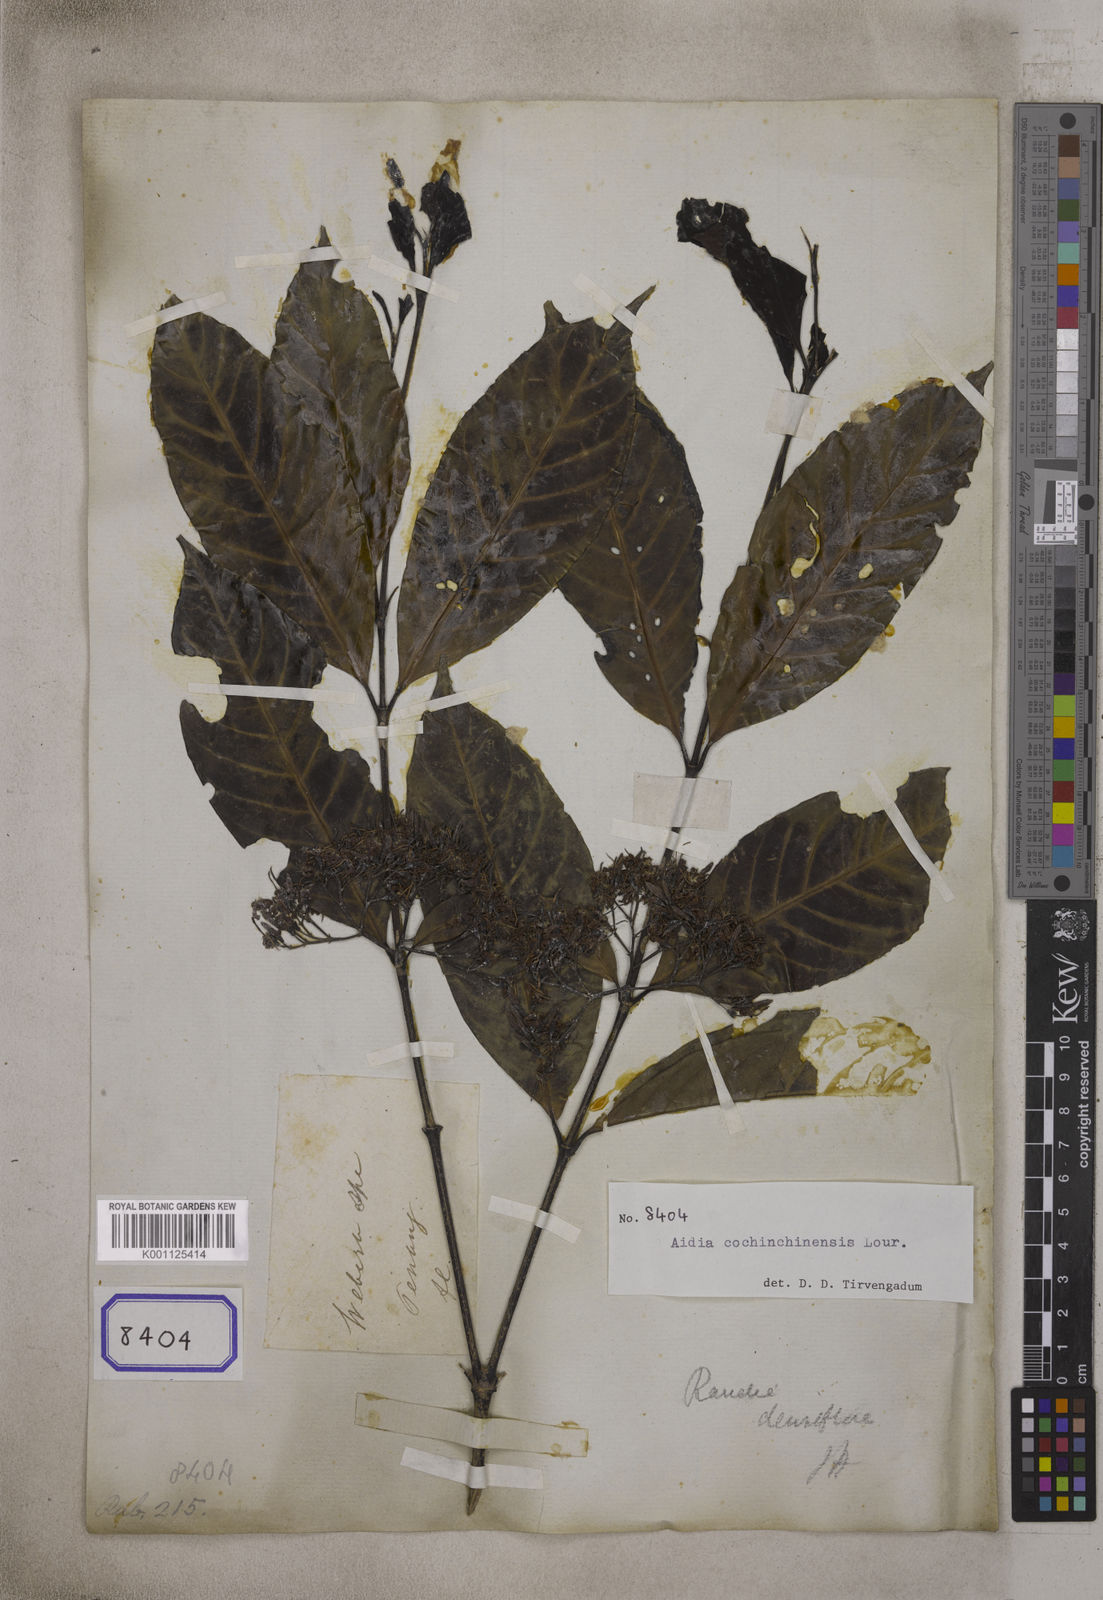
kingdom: Plantae
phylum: Tracheophyta
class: Magnoliopsida
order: Gentianales
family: Rubiaceae
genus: Aidia
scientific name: Aidia densiflora
